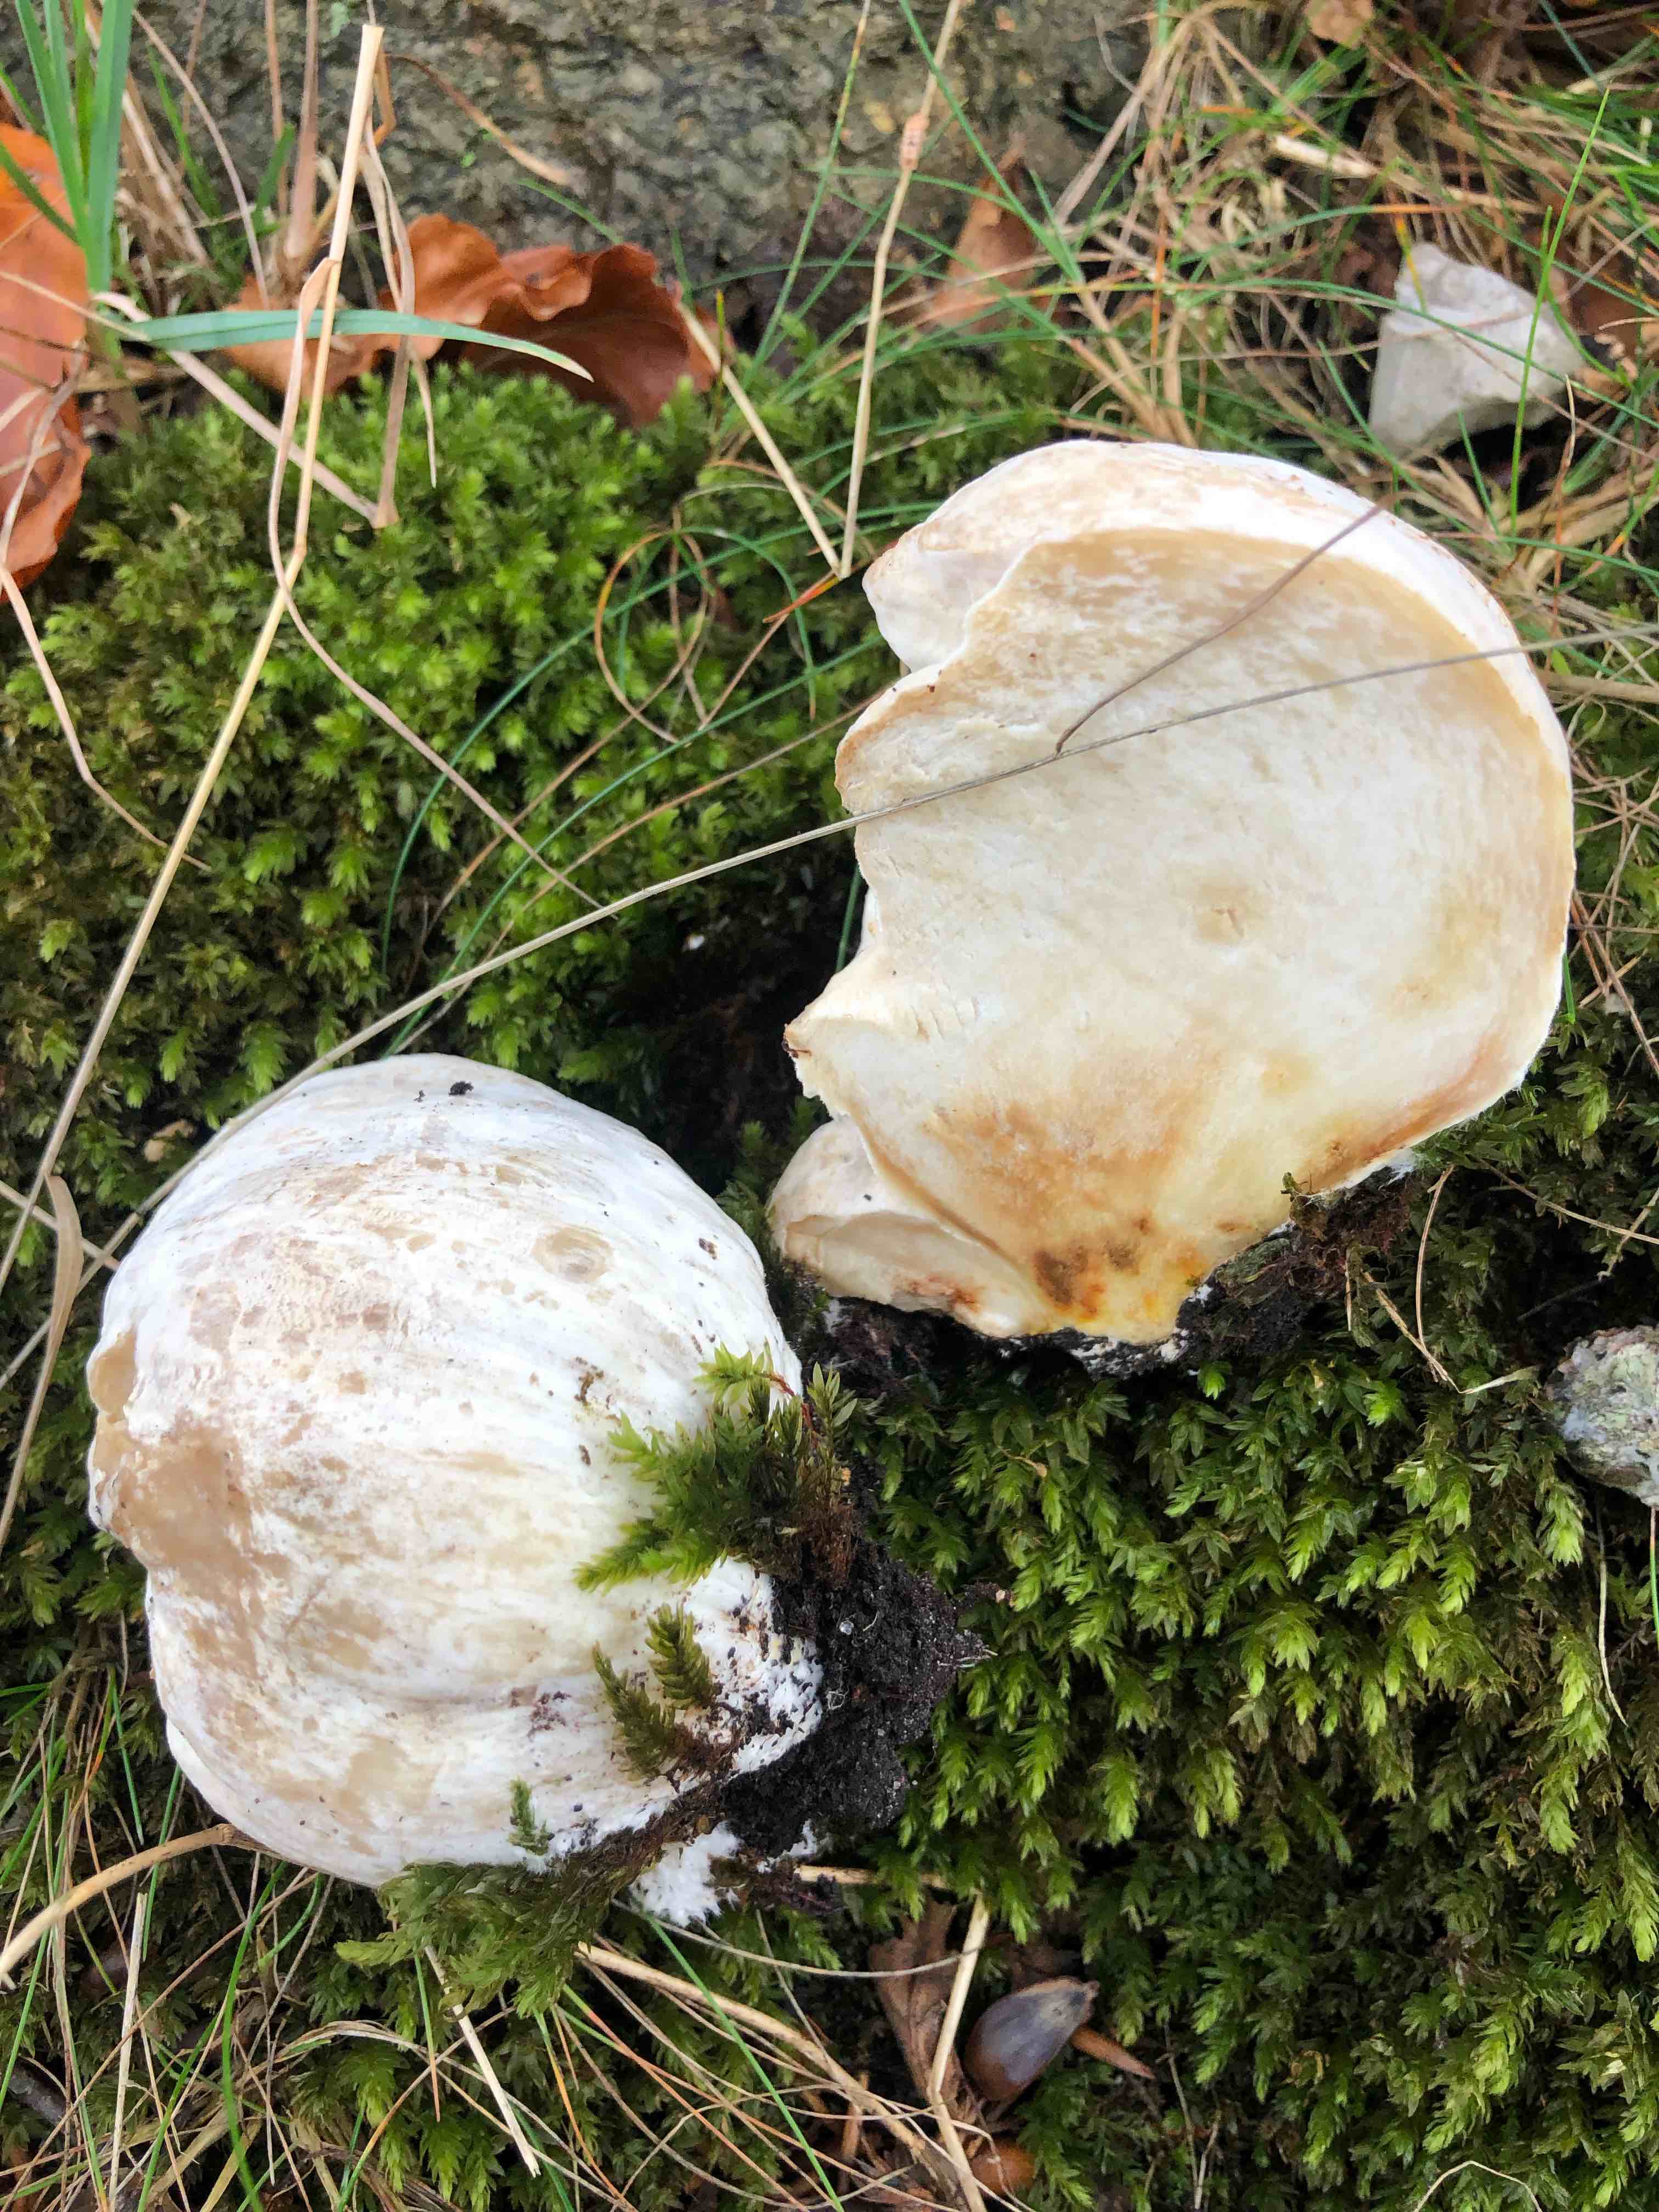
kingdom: Fungi
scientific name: Fungi
